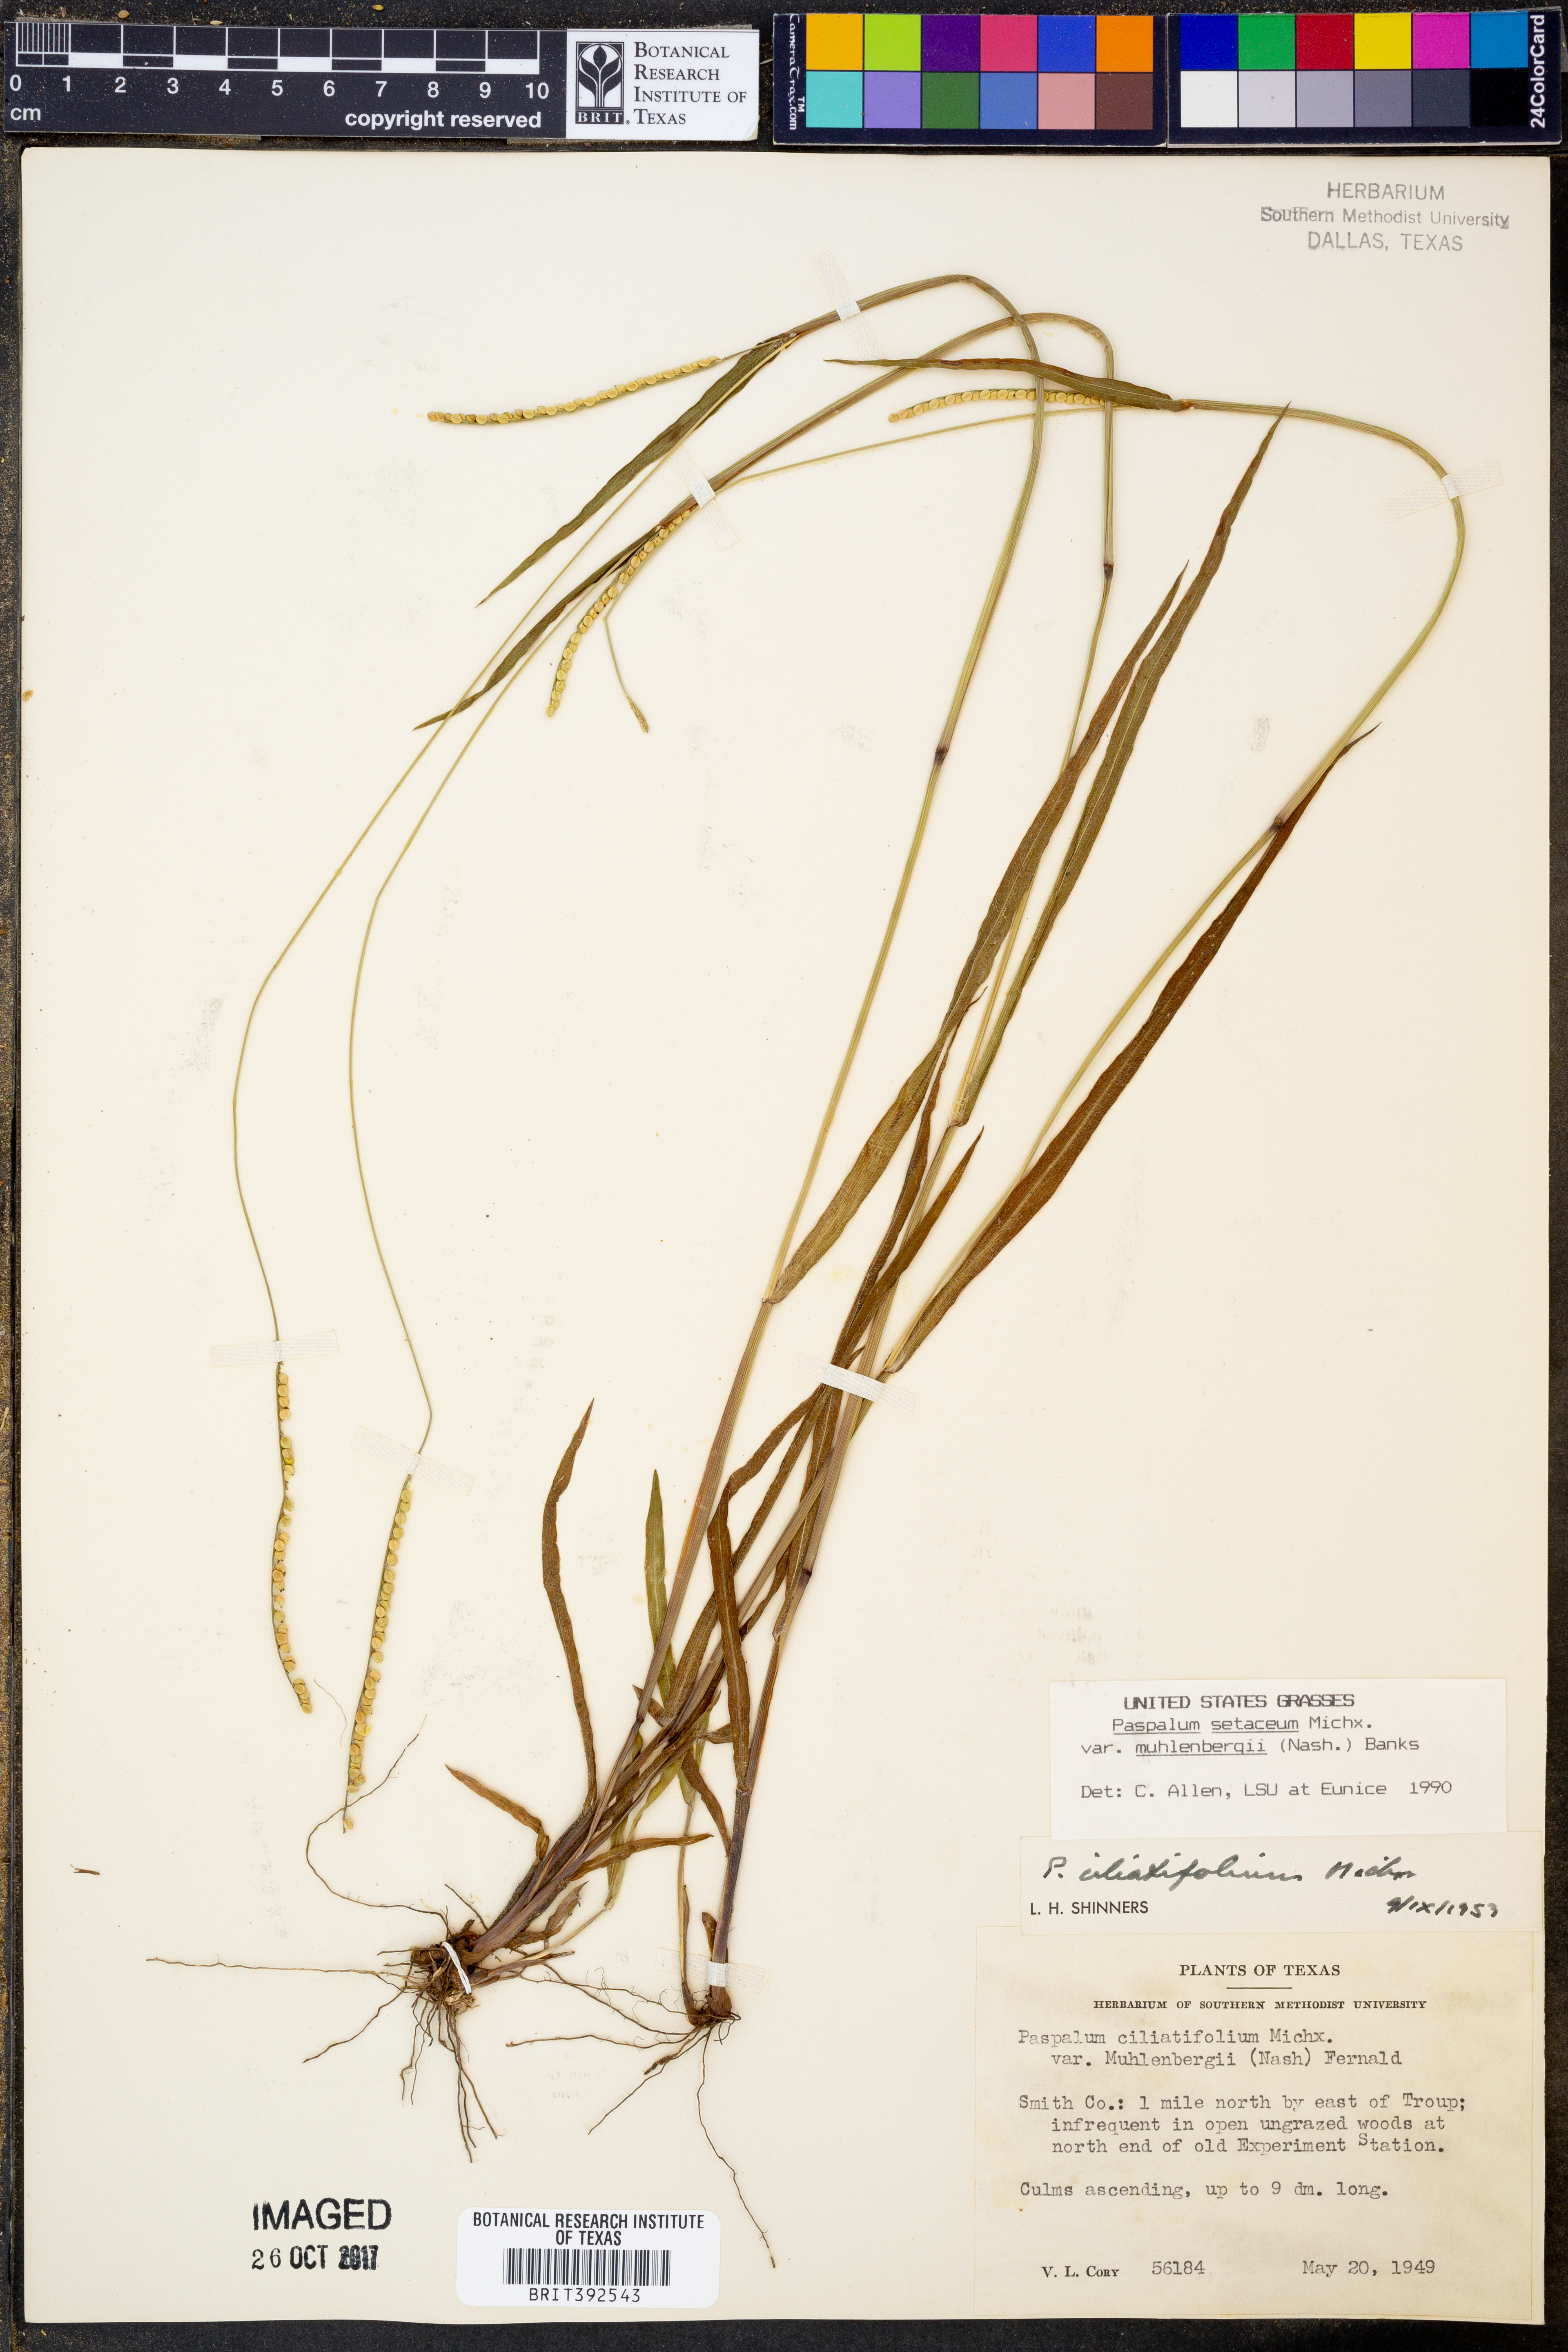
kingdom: Plantae
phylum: Tracheophyta
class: Liliopsida
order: Poales
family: Poaceae
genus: Paspalum
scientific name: Paspalum setaceum
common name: Slender paspalum
